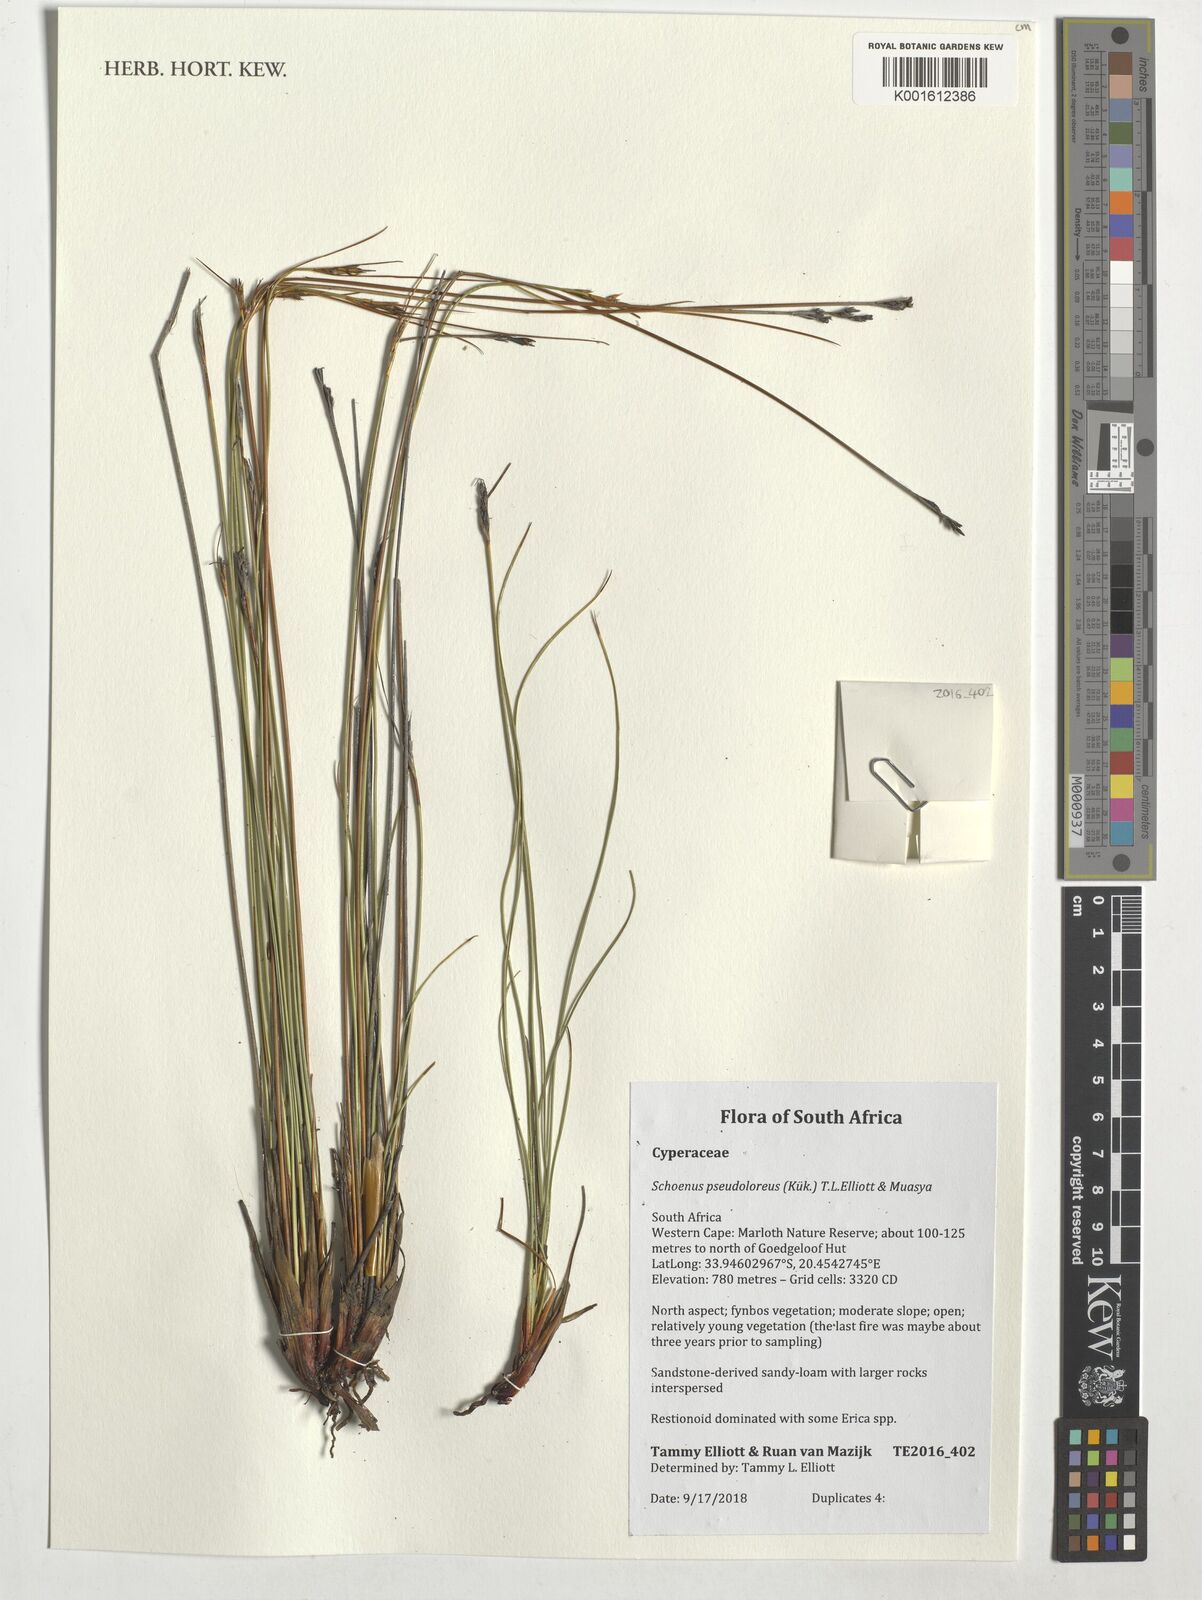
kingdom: Plantae
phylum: Tracheophyta
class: Liliopsida
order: Poales
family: Cyperaceae
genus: Schoenus
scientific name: Schoenus pseudoloreus
